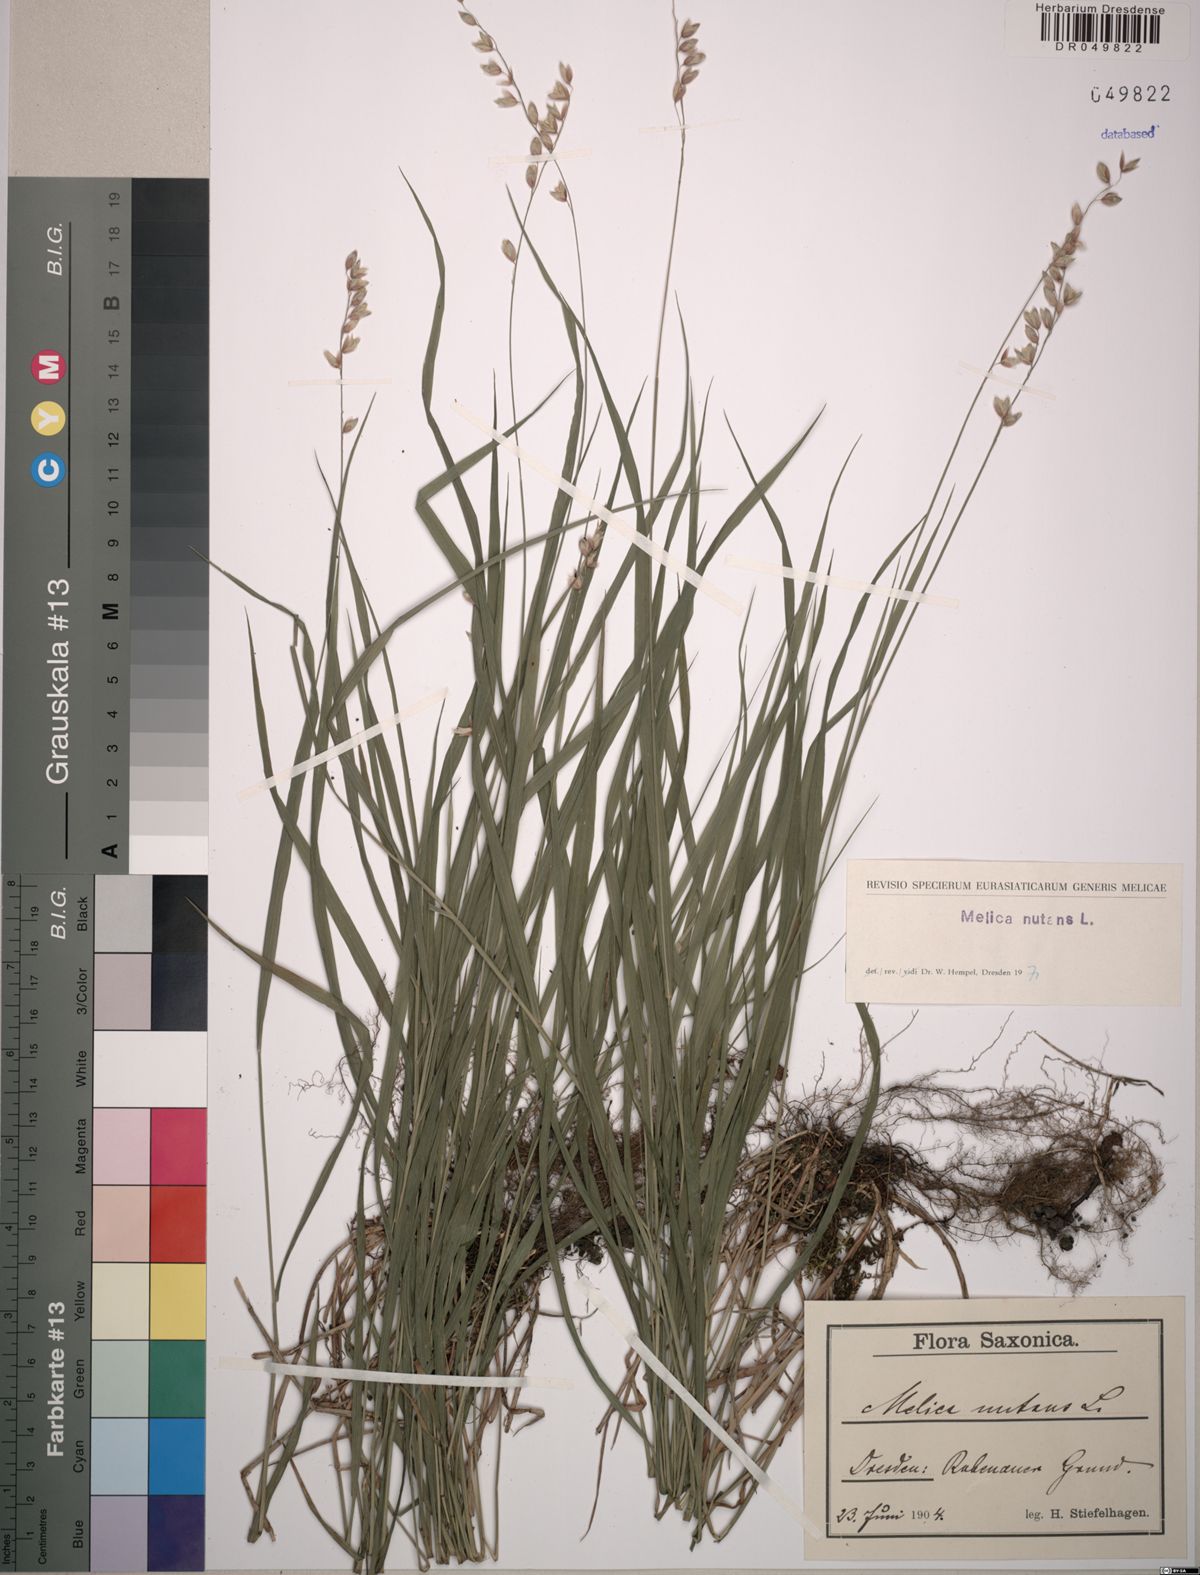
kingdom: Plantae
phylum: Tracheophyta
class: Liliopsida
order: Poales
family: Poaceae
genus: Melica
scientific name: Melica nutans
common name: Mountain melick
